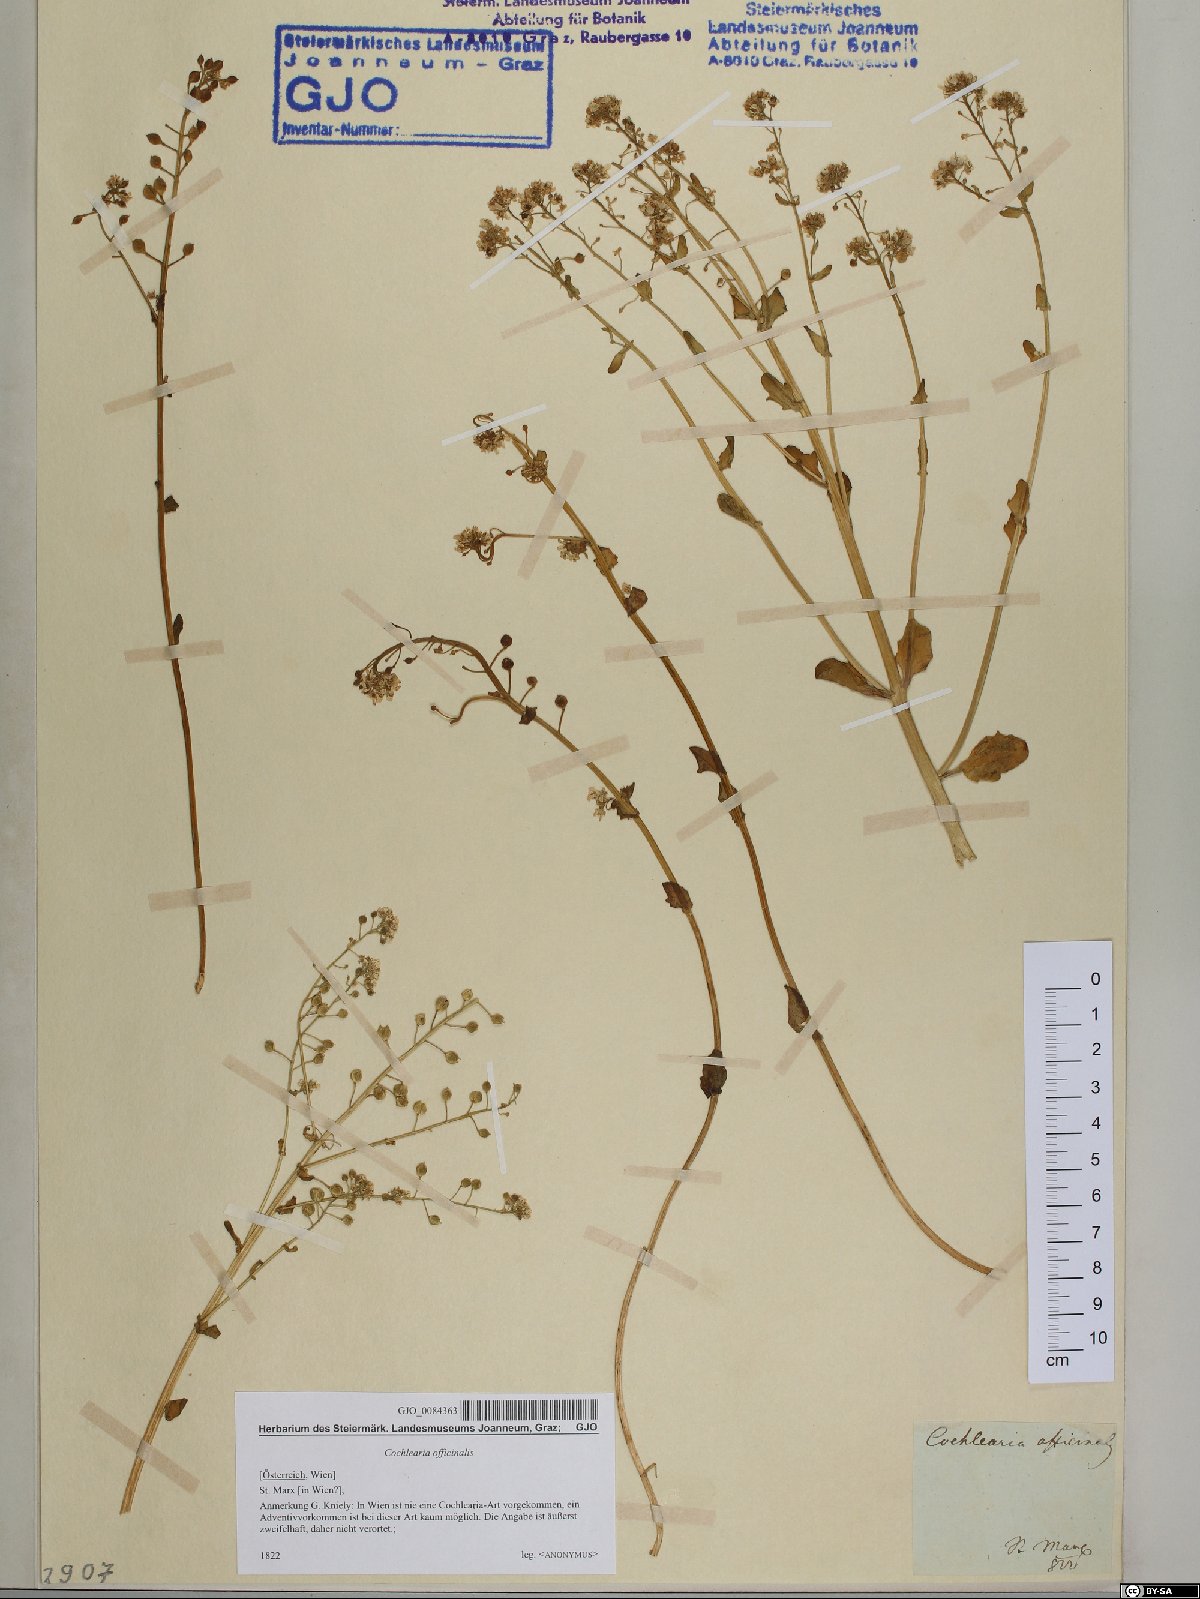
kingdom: Plantae
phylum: Tracheophyta
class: Magnoliopsida
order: Brassicales
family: Brassicaceae
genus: Cochlearia
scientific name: Cochlearia officinalis
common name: Scurvy-grass
